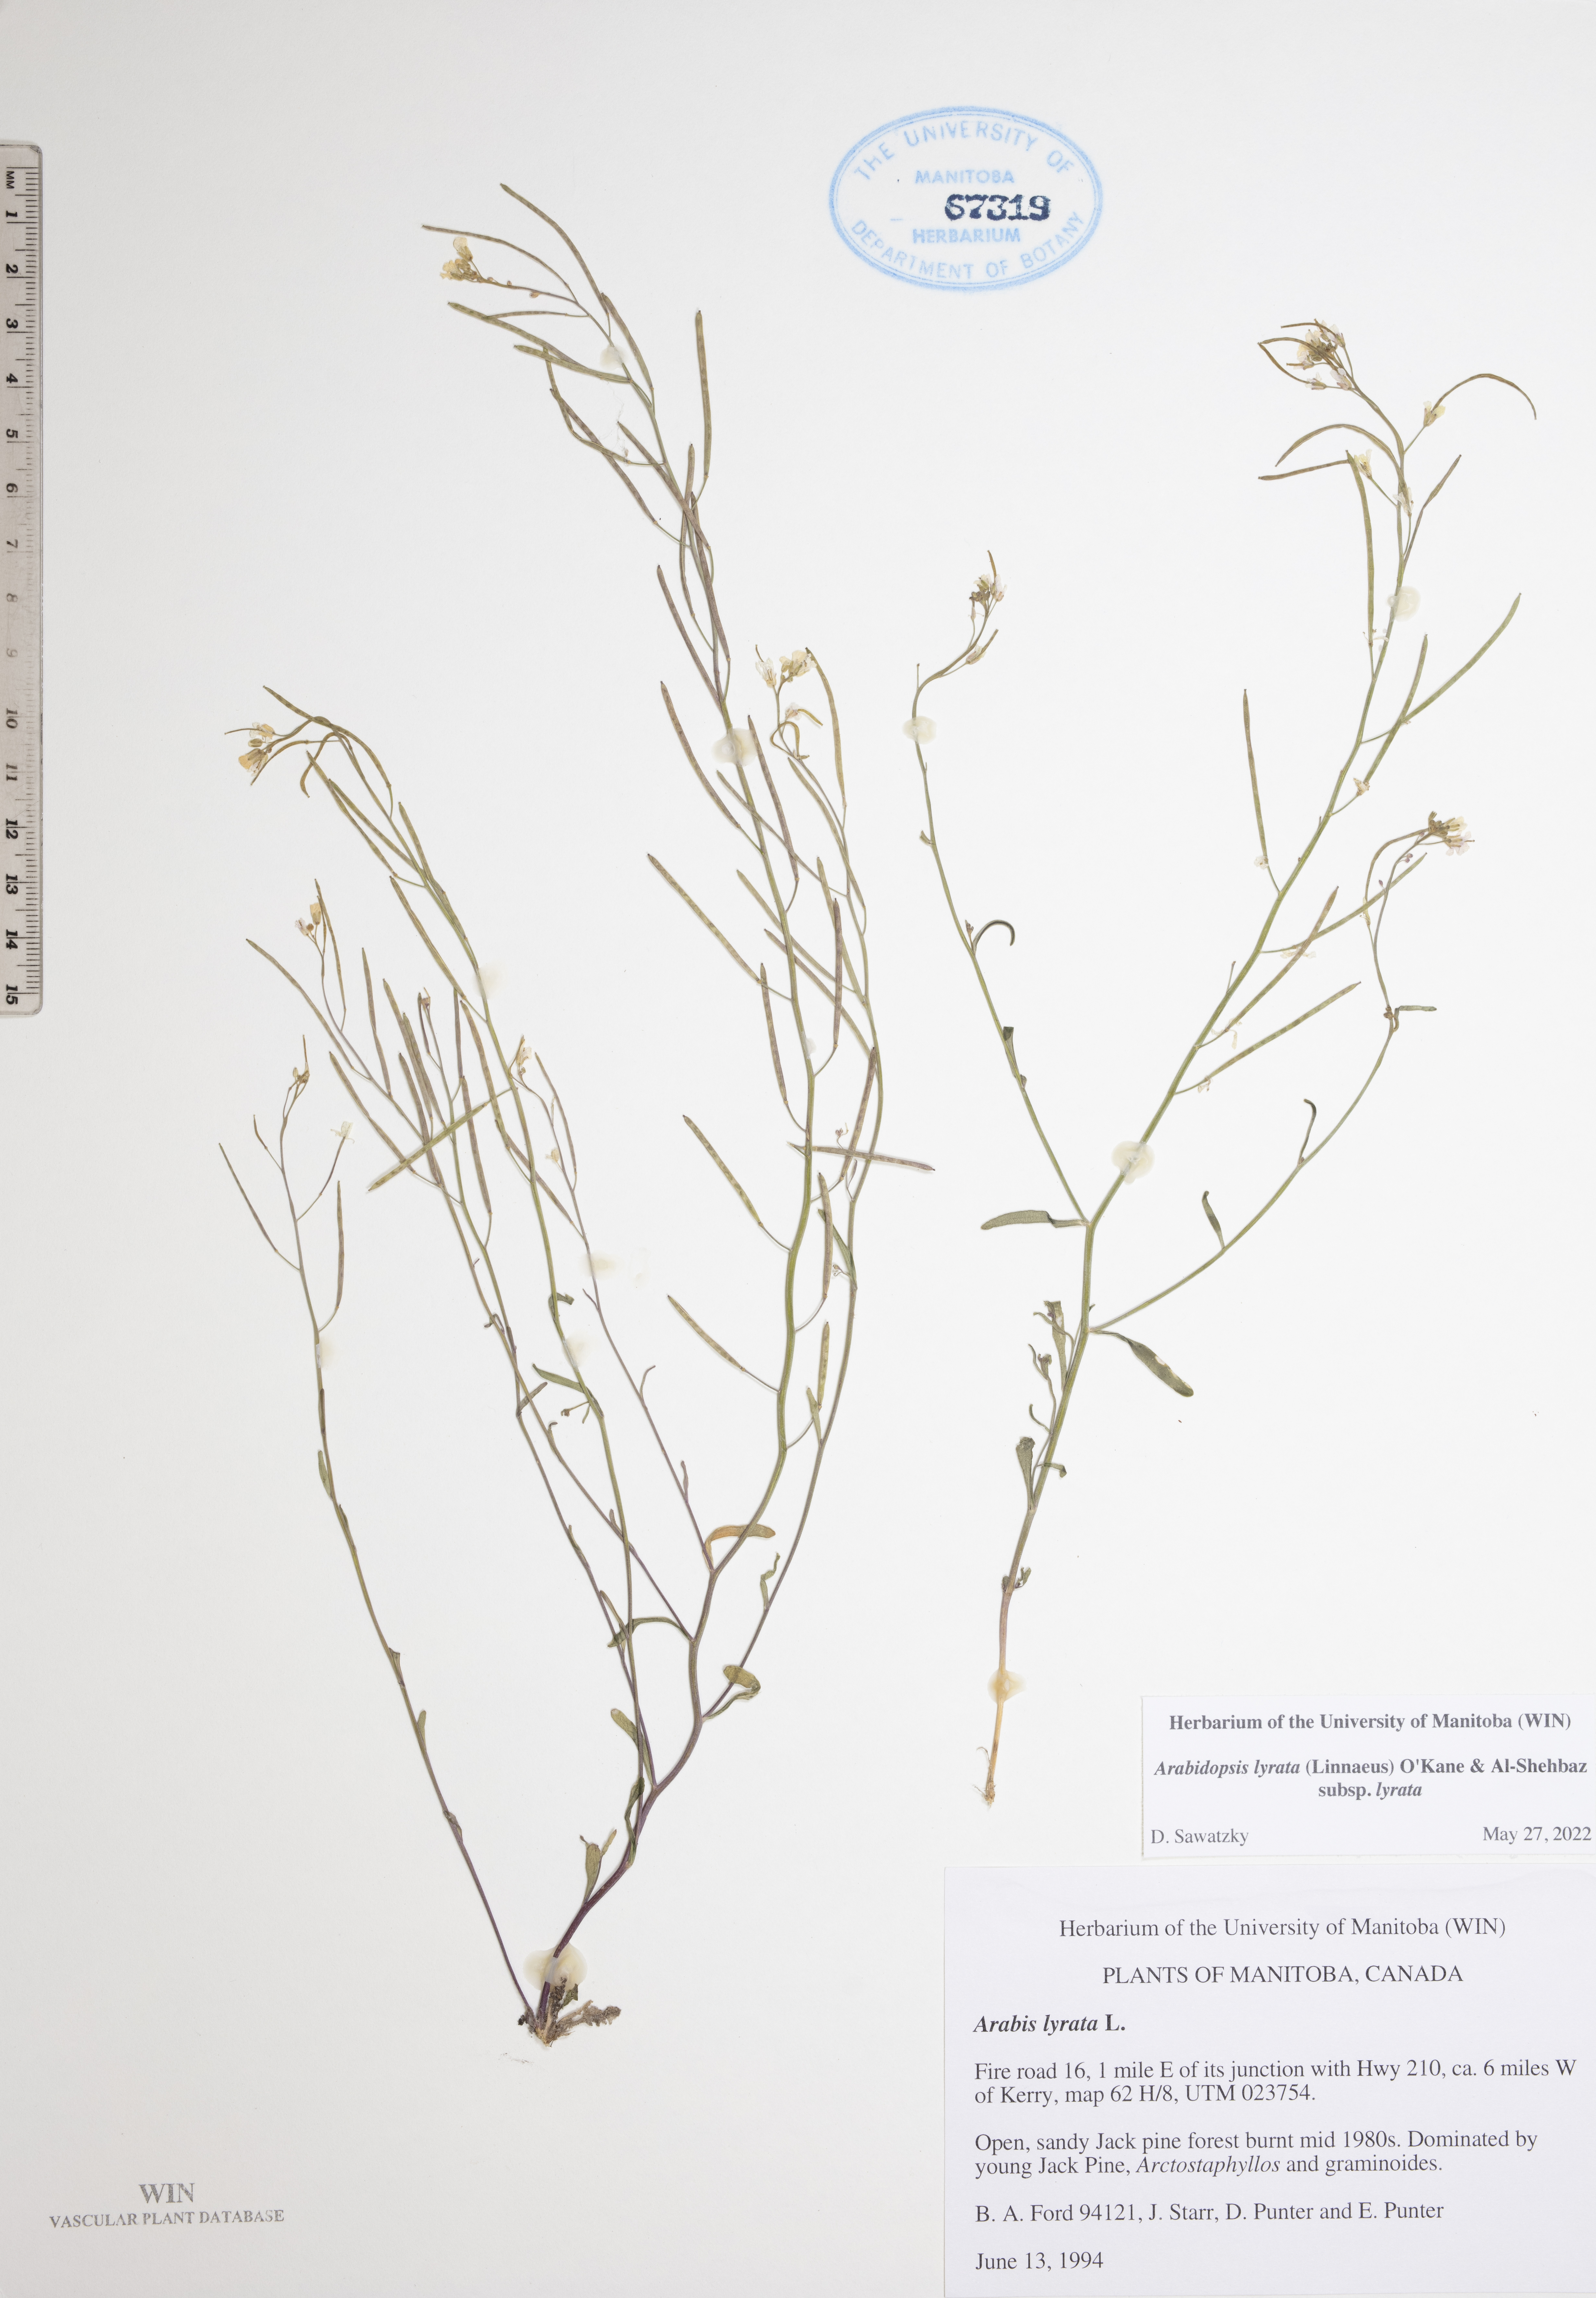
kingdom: Plantae
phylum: Tracheophyta
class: Magnoliopsida
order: Brassicales
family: Brassicaceae
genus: Arabidopsis
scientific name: Arabidopsis lyrata
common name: Lyrate rockcress
